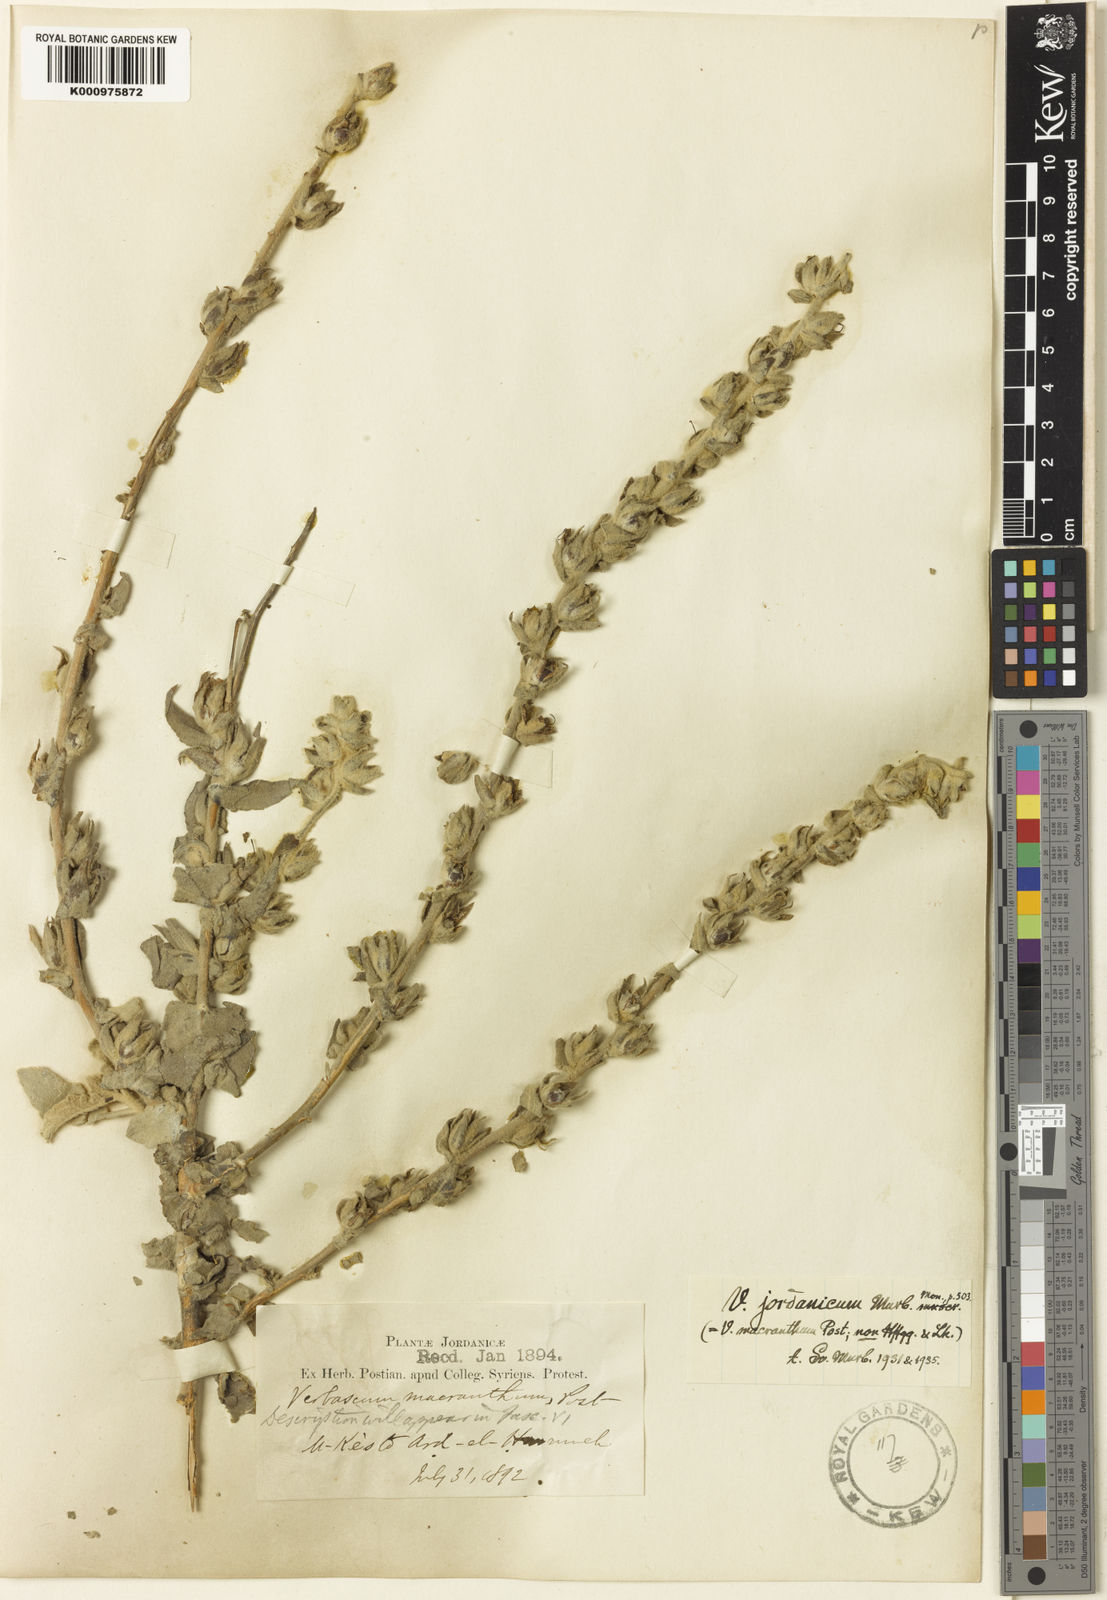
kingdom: Plantae
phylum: Tracheophyta
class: Magnoliopsida
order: Lamiales
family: Scrophulariaceae
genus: Verbascum
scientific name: Verbascum jordanicum
